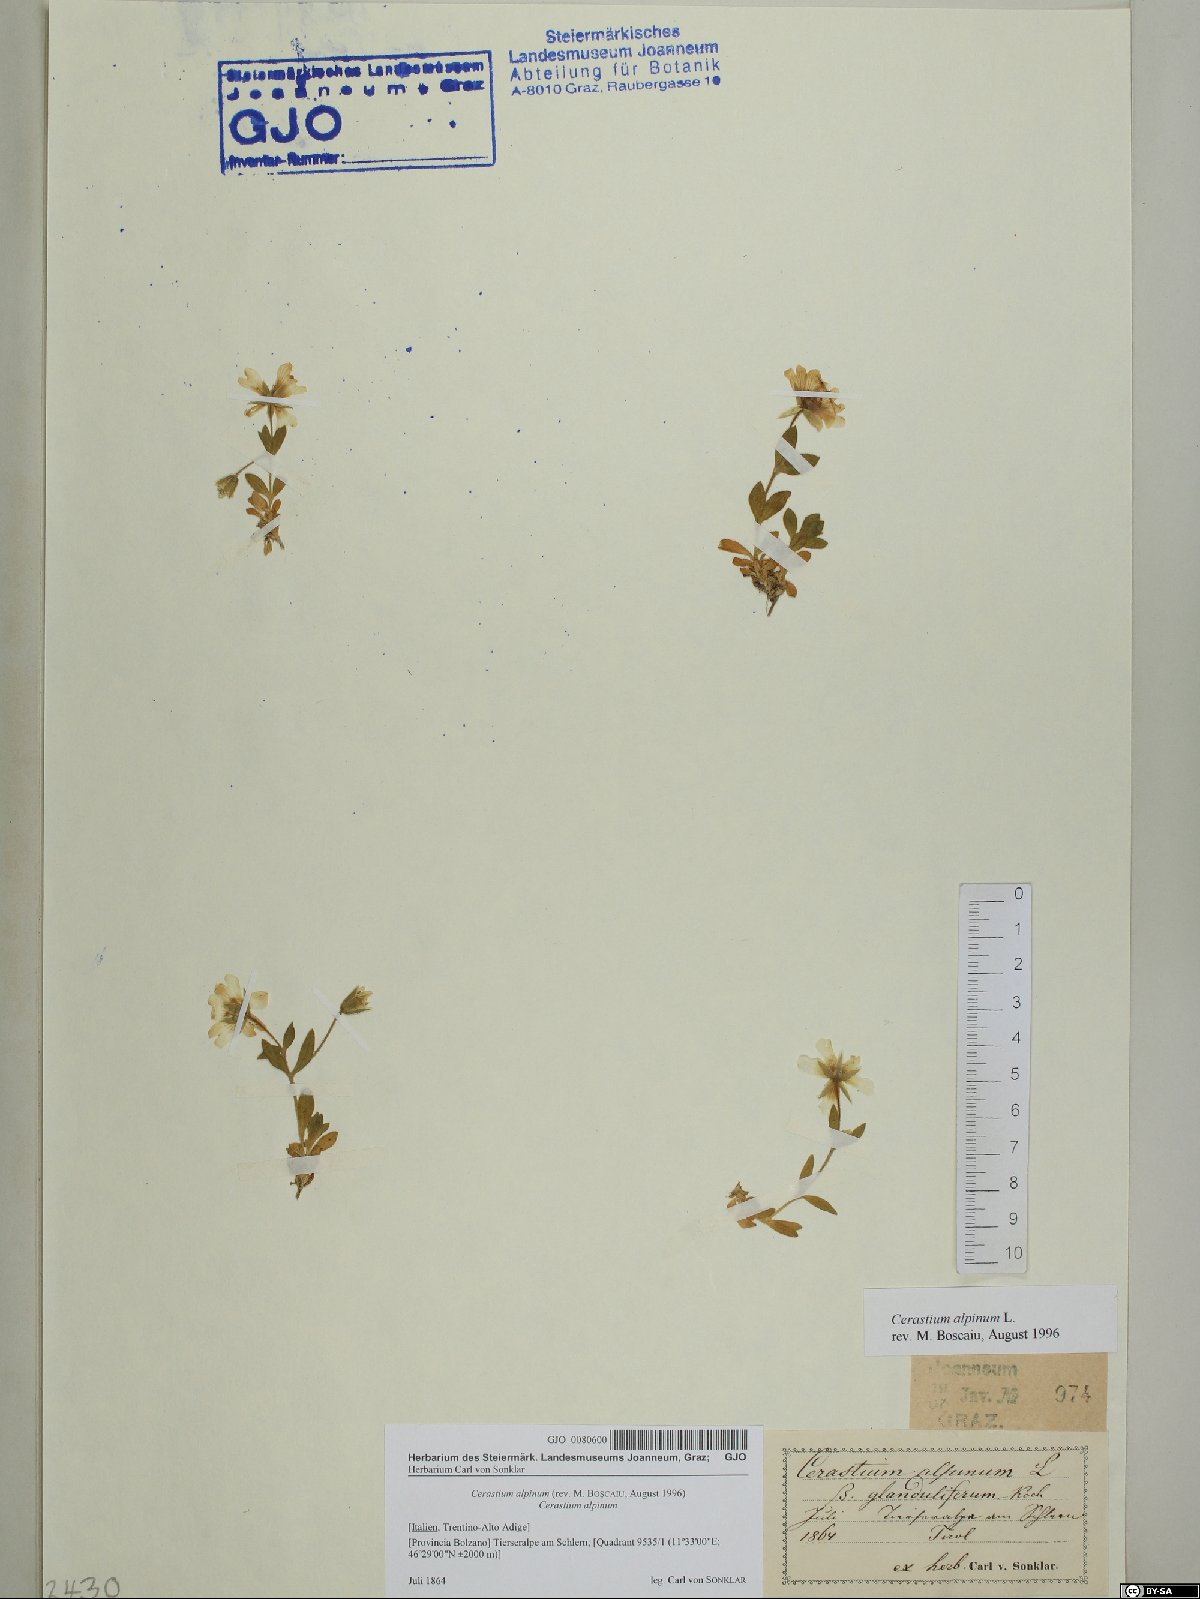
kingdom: Plantae
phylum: Tracheophyta
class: Magnoliopsida
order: Caryophyllales
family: Caryophyllaceae
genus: Cerastium
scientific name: Cerastium alpinum
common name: Alpine mouse-ear
